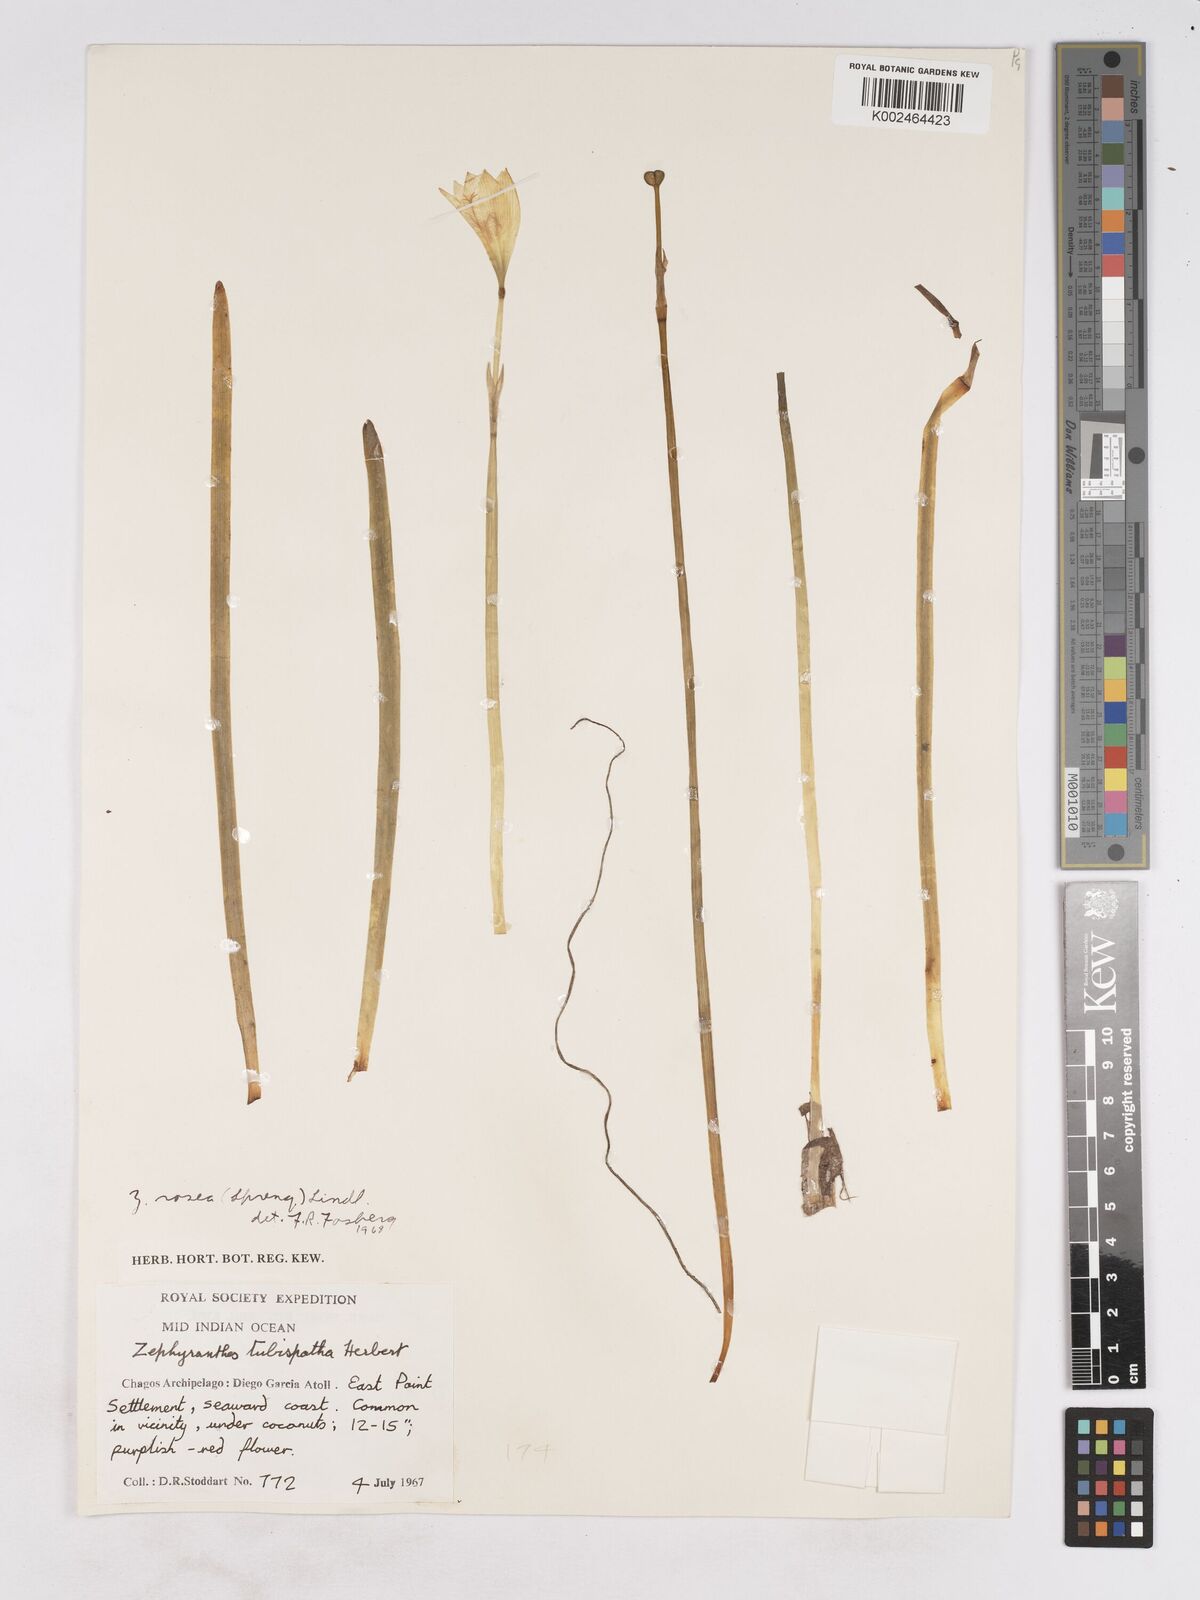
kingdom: Plantae
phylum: Tracheophyta
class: Liliopsida
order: Asparagales
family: Amaryllidaceae
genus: Zephyranthes
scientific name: Zephyranthes rosea
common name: Cuban zephyrlily
